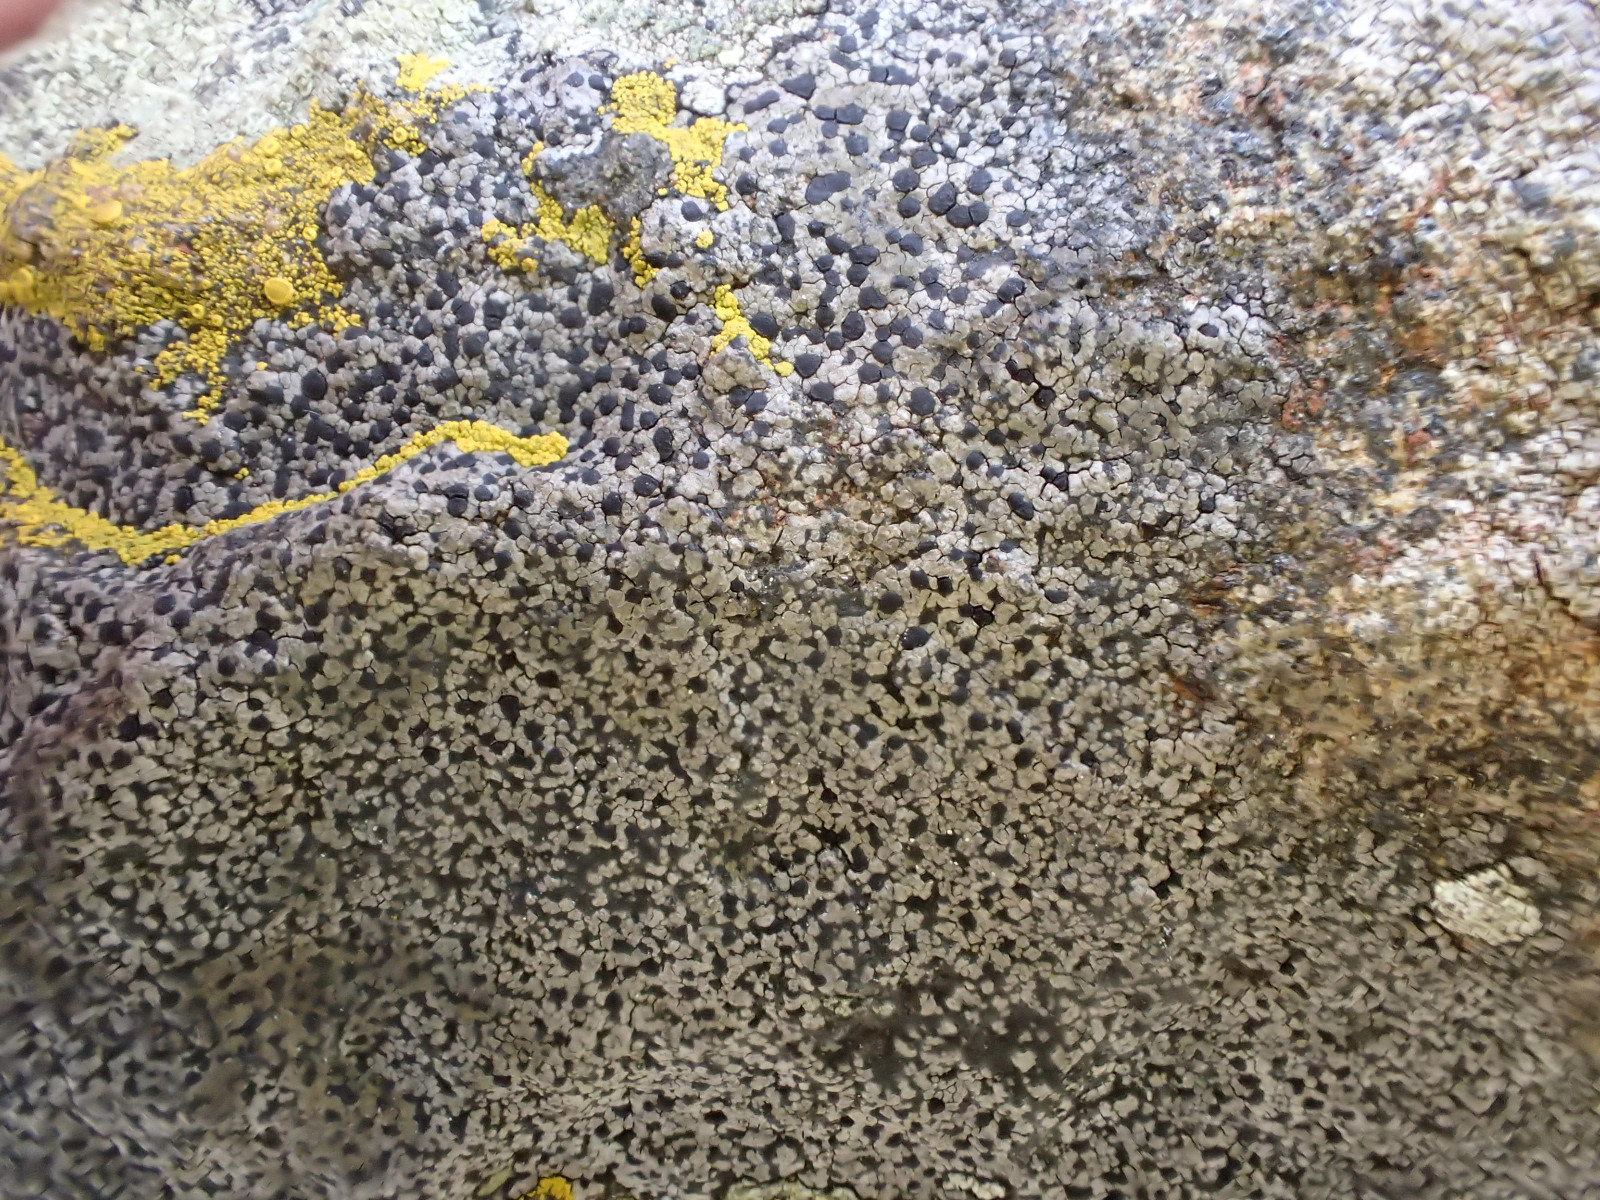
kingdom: Fungi
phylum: Ascomycota
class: Lecanoromycetes
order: Rhizocarpales
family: Rhizocarpaceae
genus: Rhizocarpon
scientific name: Rhizocarpon reductum
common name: mørk landkortlav
